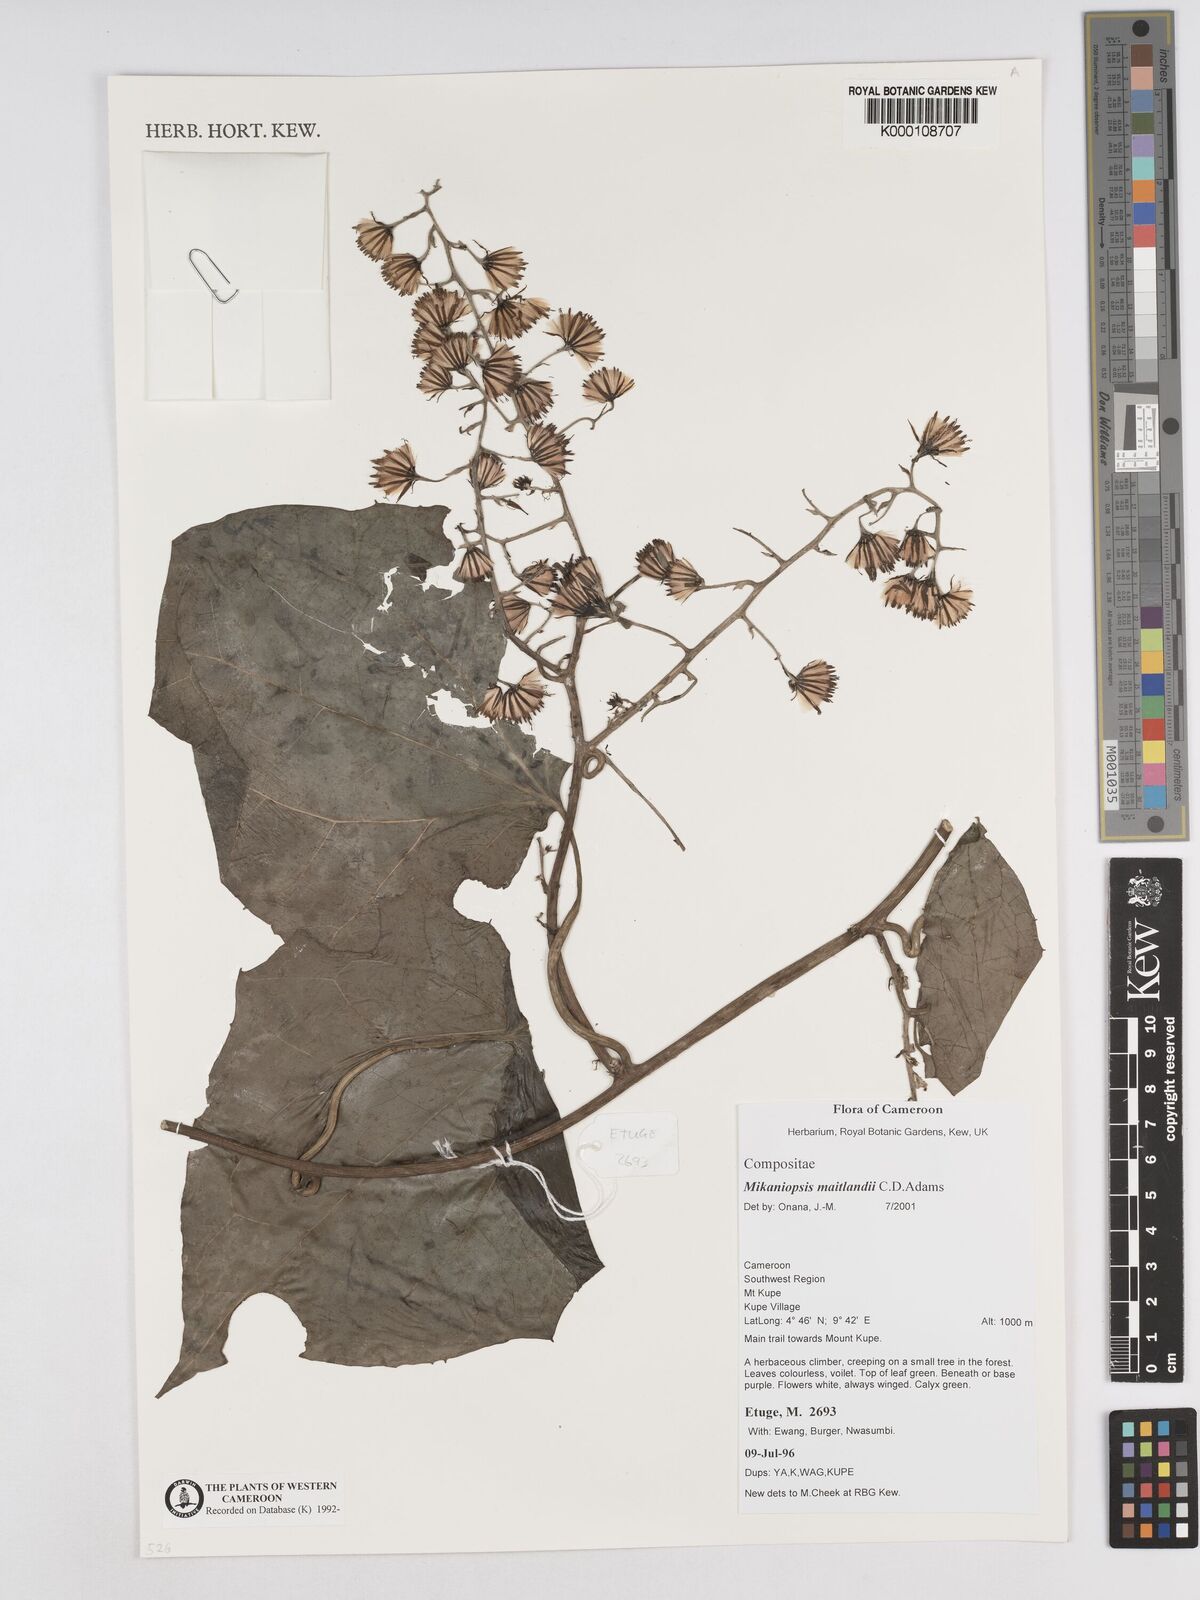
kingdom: Plantae
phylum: Tracheophyta
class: Magnoliopsida
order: Asterales
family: Asteraceae
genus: Mikaniopsis
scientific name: Mikaniopsis maitlandii
